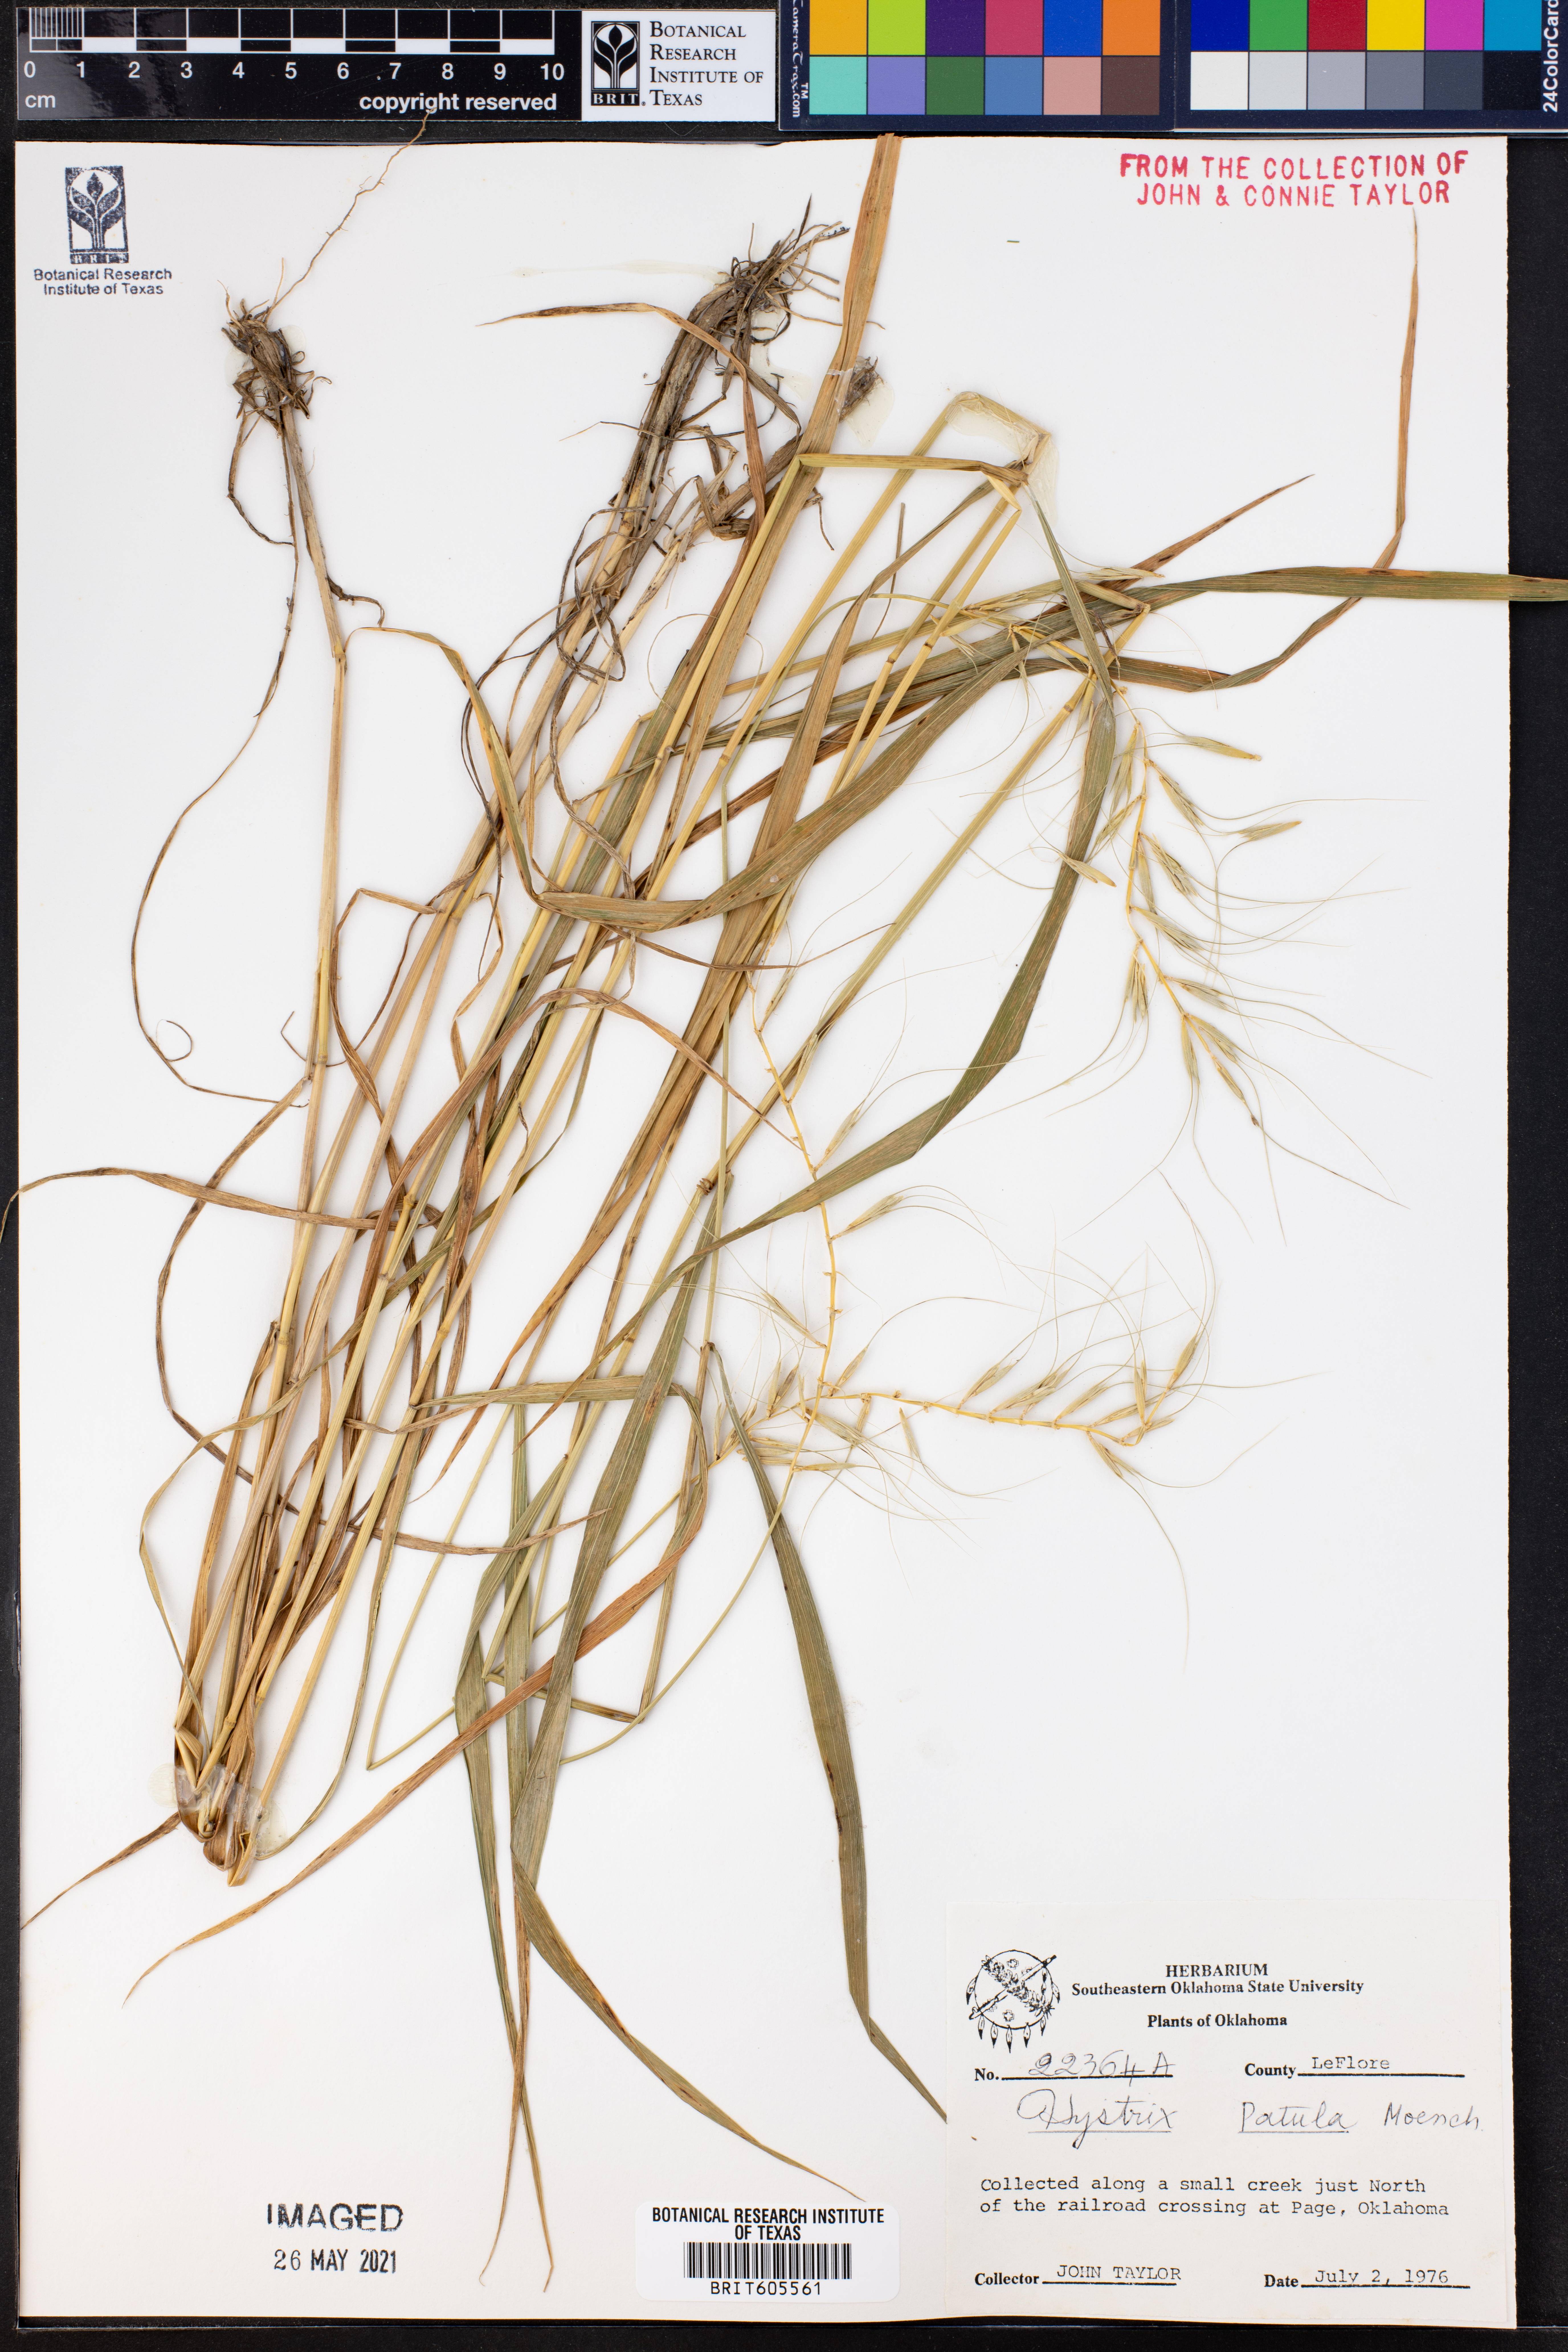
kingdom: Plantae
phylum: Tracheophyta
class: Liliopsida
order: Poales
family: Poaceae
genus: Elymus
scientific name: Elymus hystrix
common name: Bottlebrush grass
